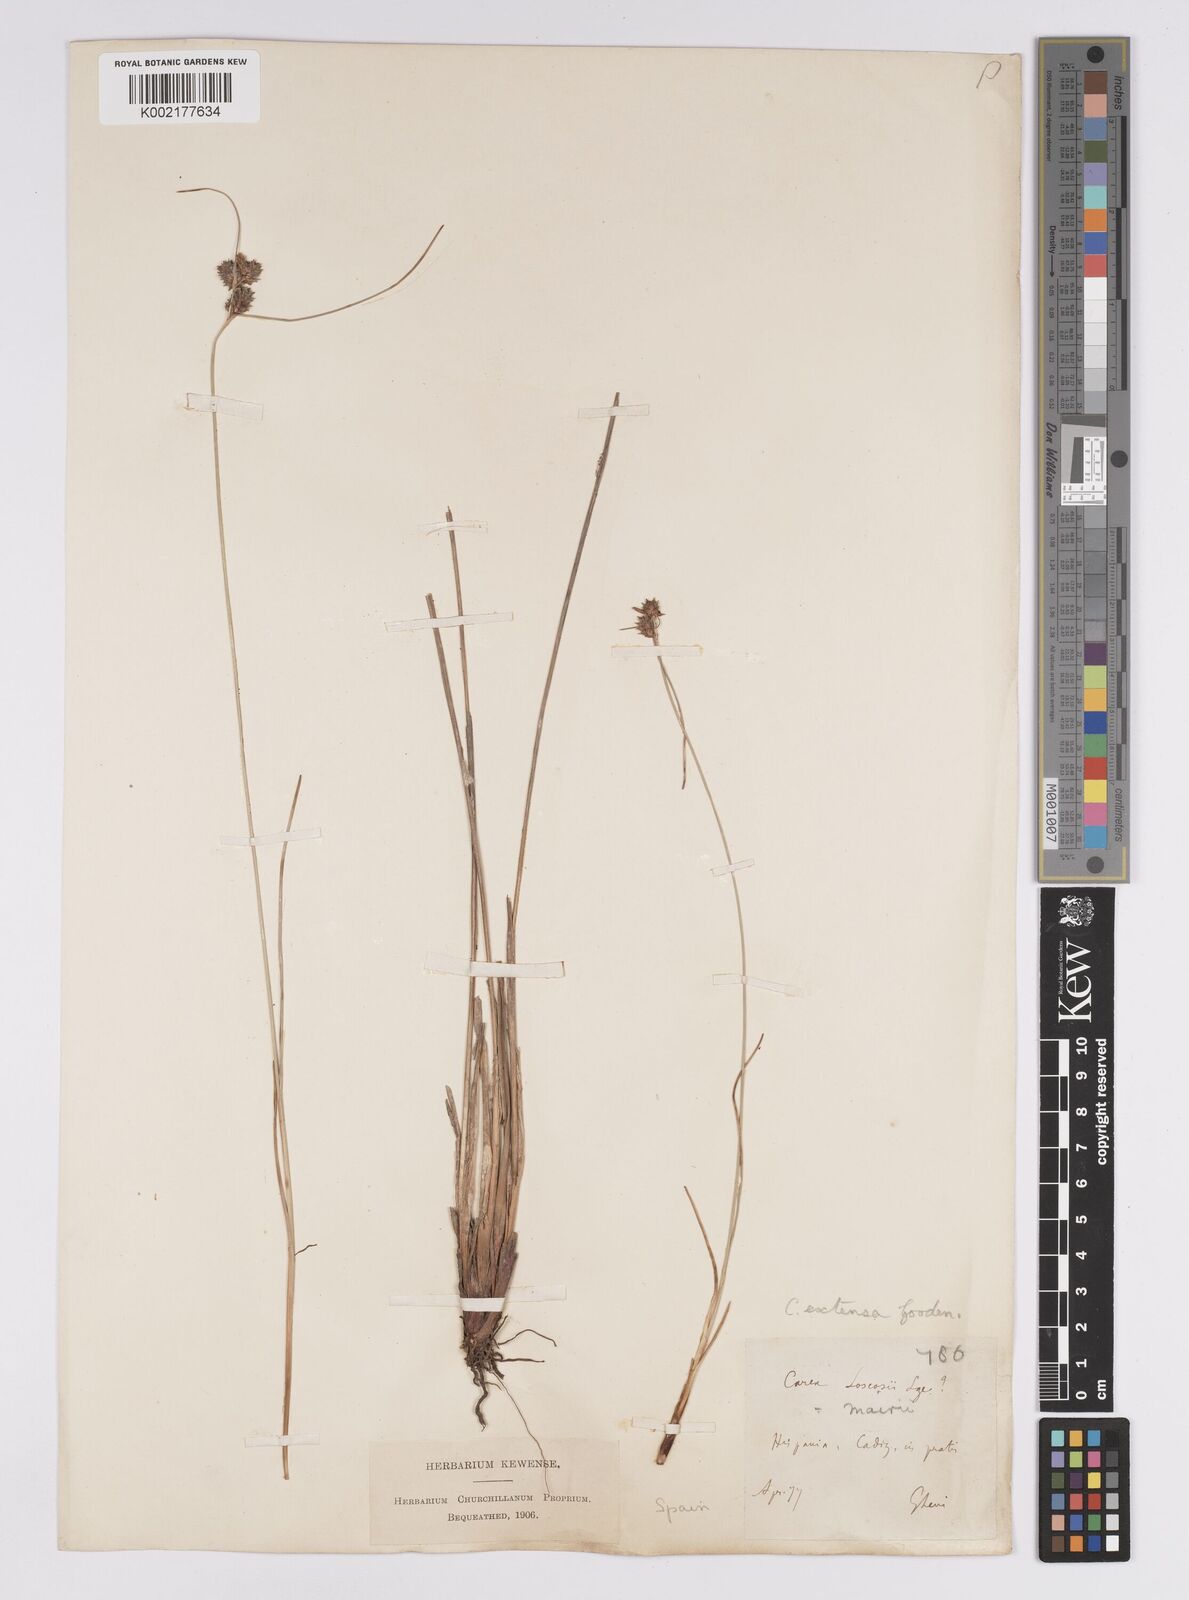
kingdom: Plantae
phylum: Tracheophyta
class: Liliopsida
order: Poales
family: Cyperaceae
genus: Carex
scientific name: Carex extensa
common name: Long-bracted sedge
